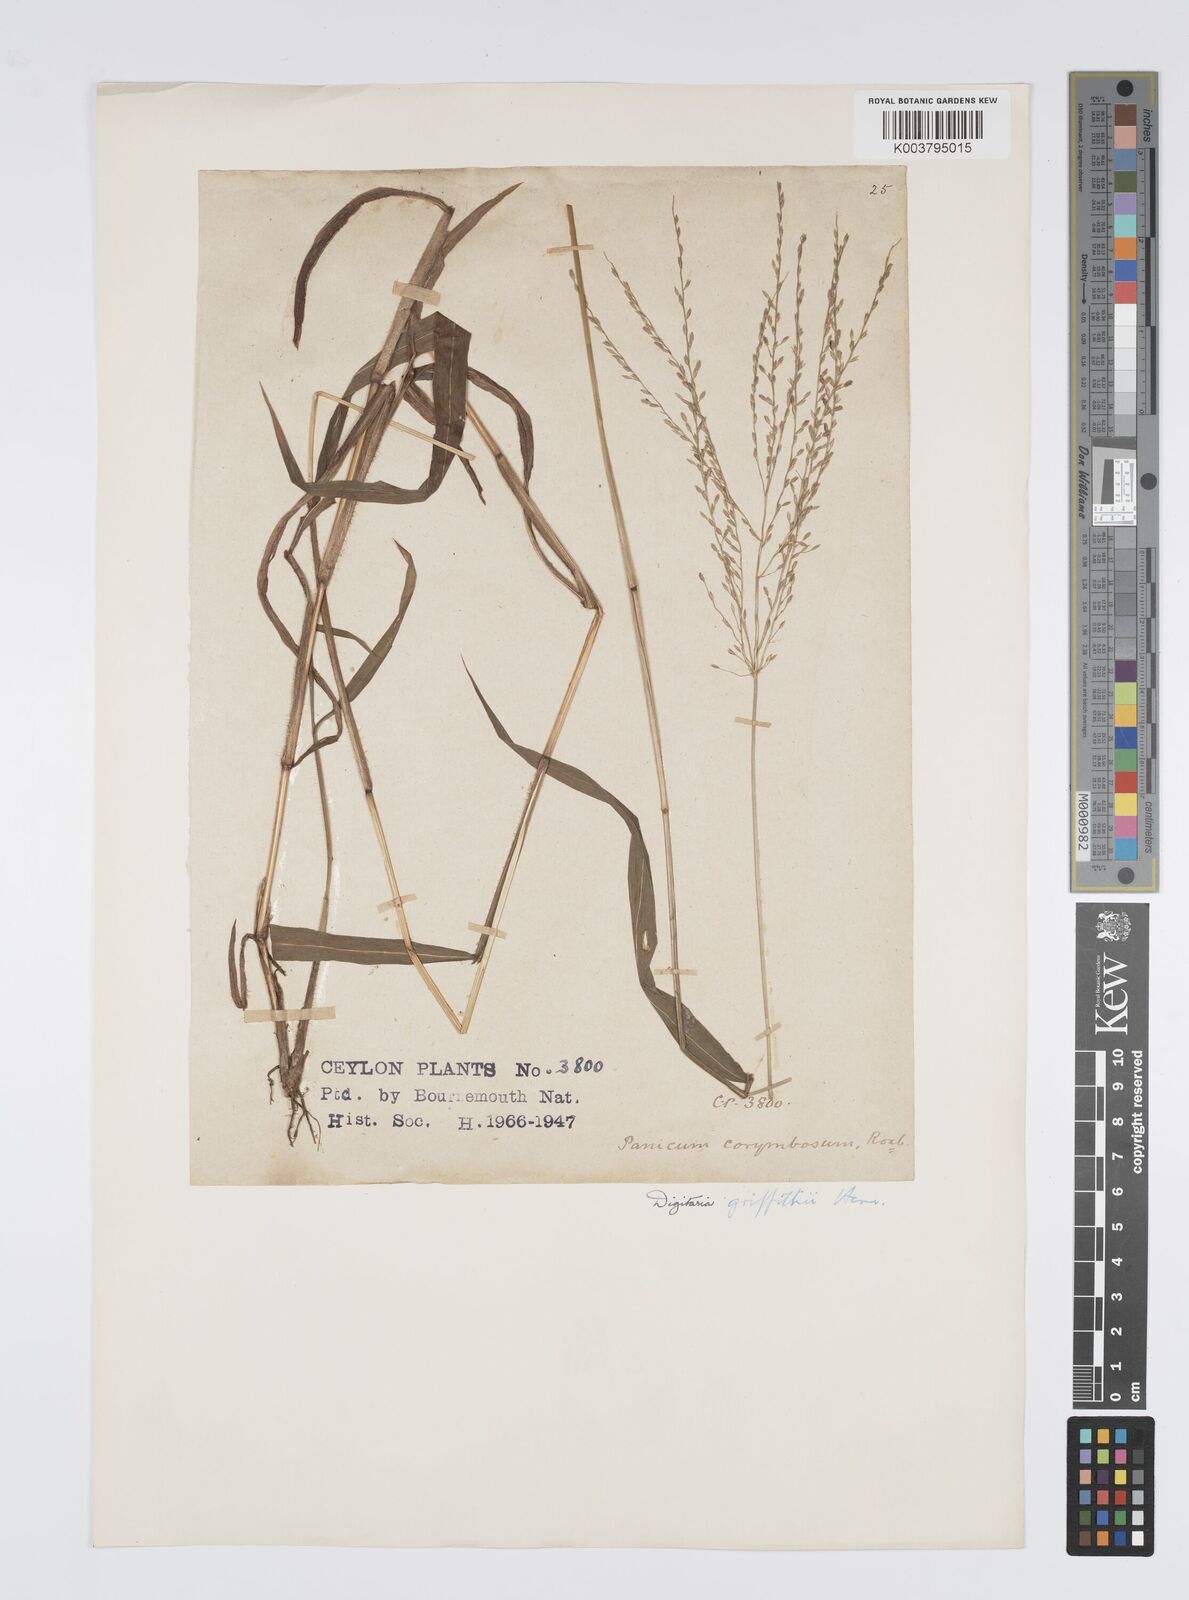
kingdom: Plantae
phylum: Tracheophyta
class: Liliopsida
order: Poales
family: Poaceae
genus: Digitaria
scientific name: Digitaria griffithii
